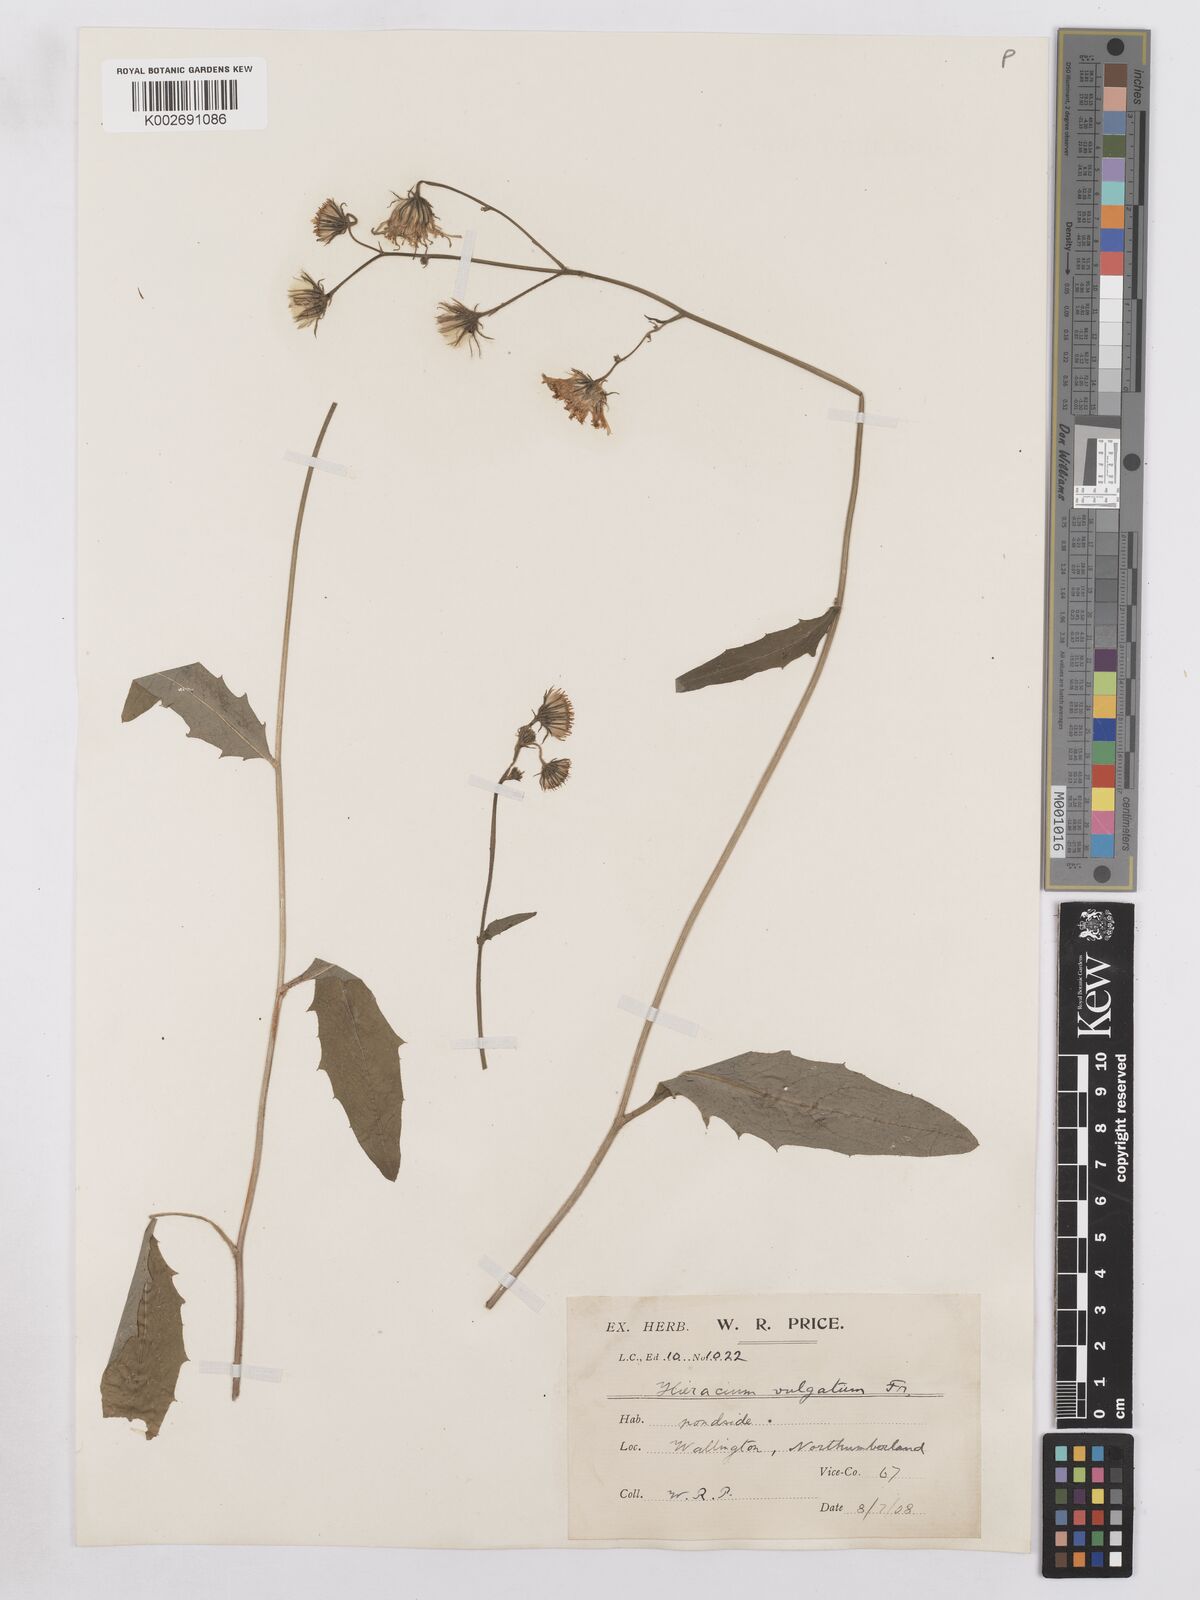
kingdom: Plantae
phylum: Tracheophyta
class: Magnoliopsida
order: Asterales
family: Asteraceae
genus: Hieracium
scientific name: Hieracium lachenalii
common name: Common hawkweed
